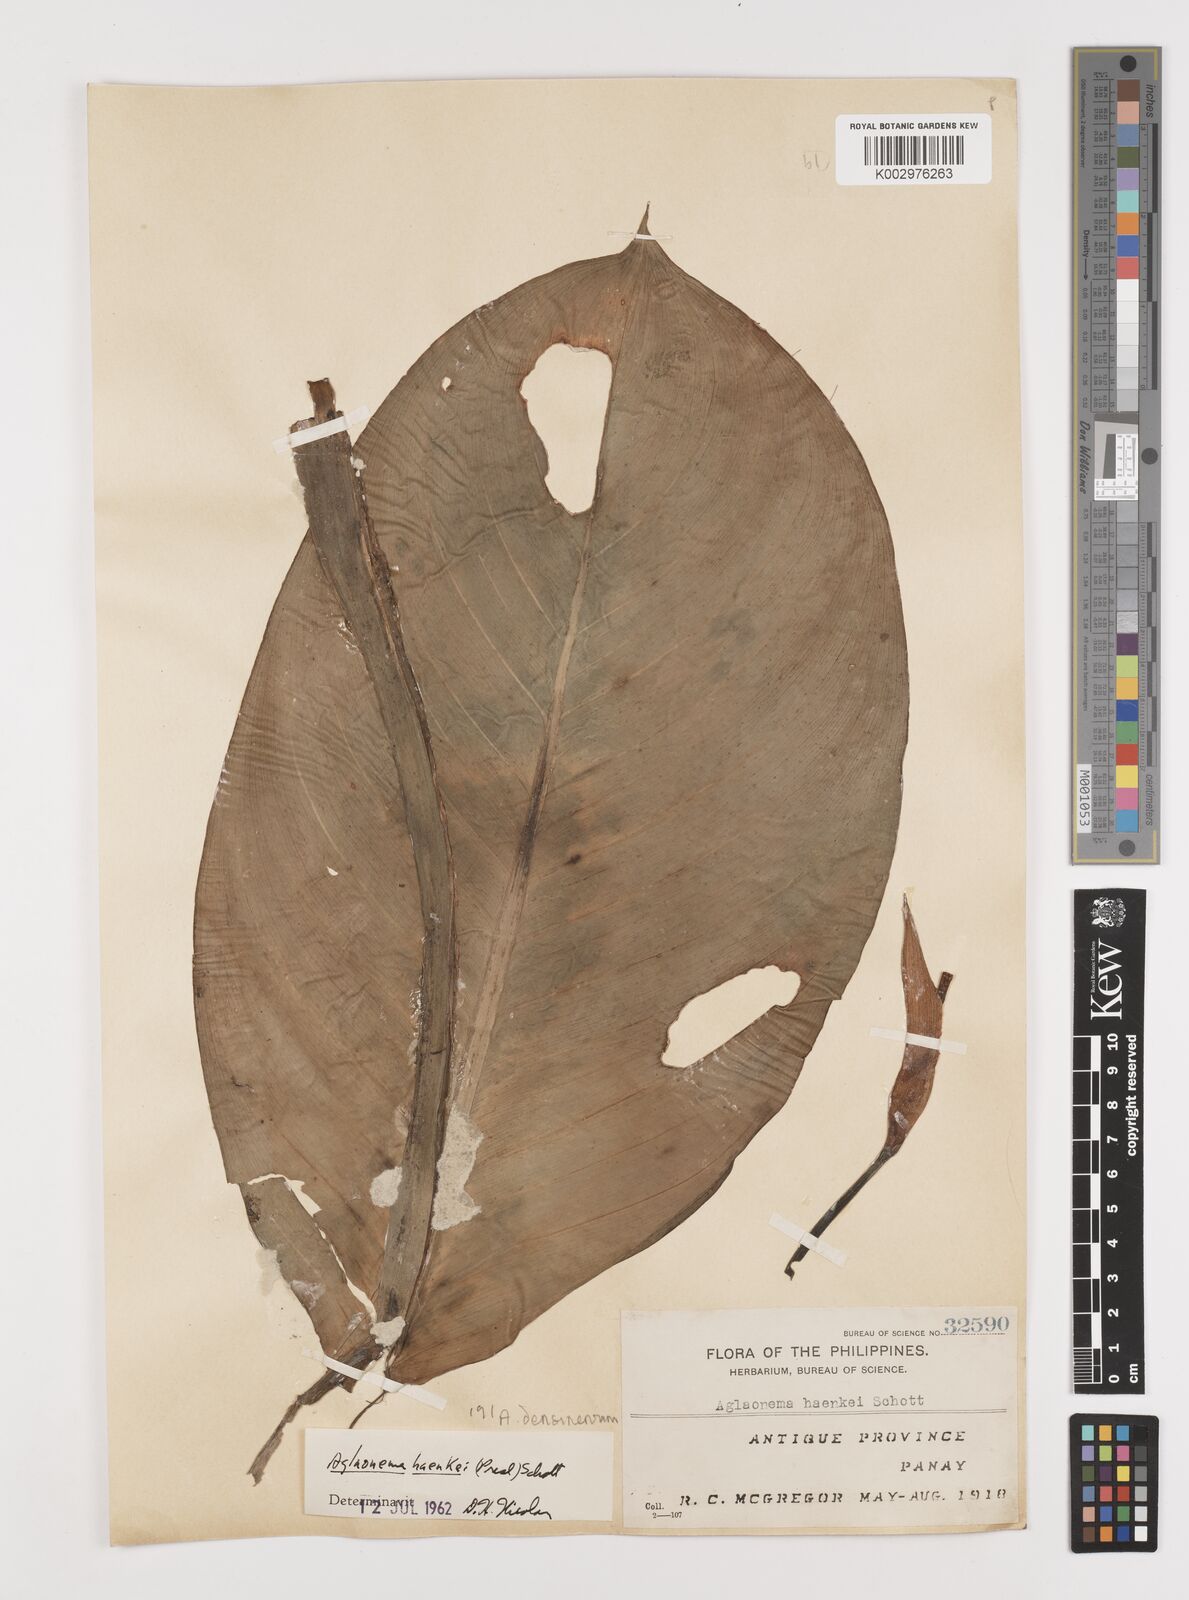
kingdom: Plantae
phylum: Tracheophyta
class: Liliopsida
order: Alismatales
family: Araceae
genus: Aglaonema
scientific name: Aglaonema densinervium
